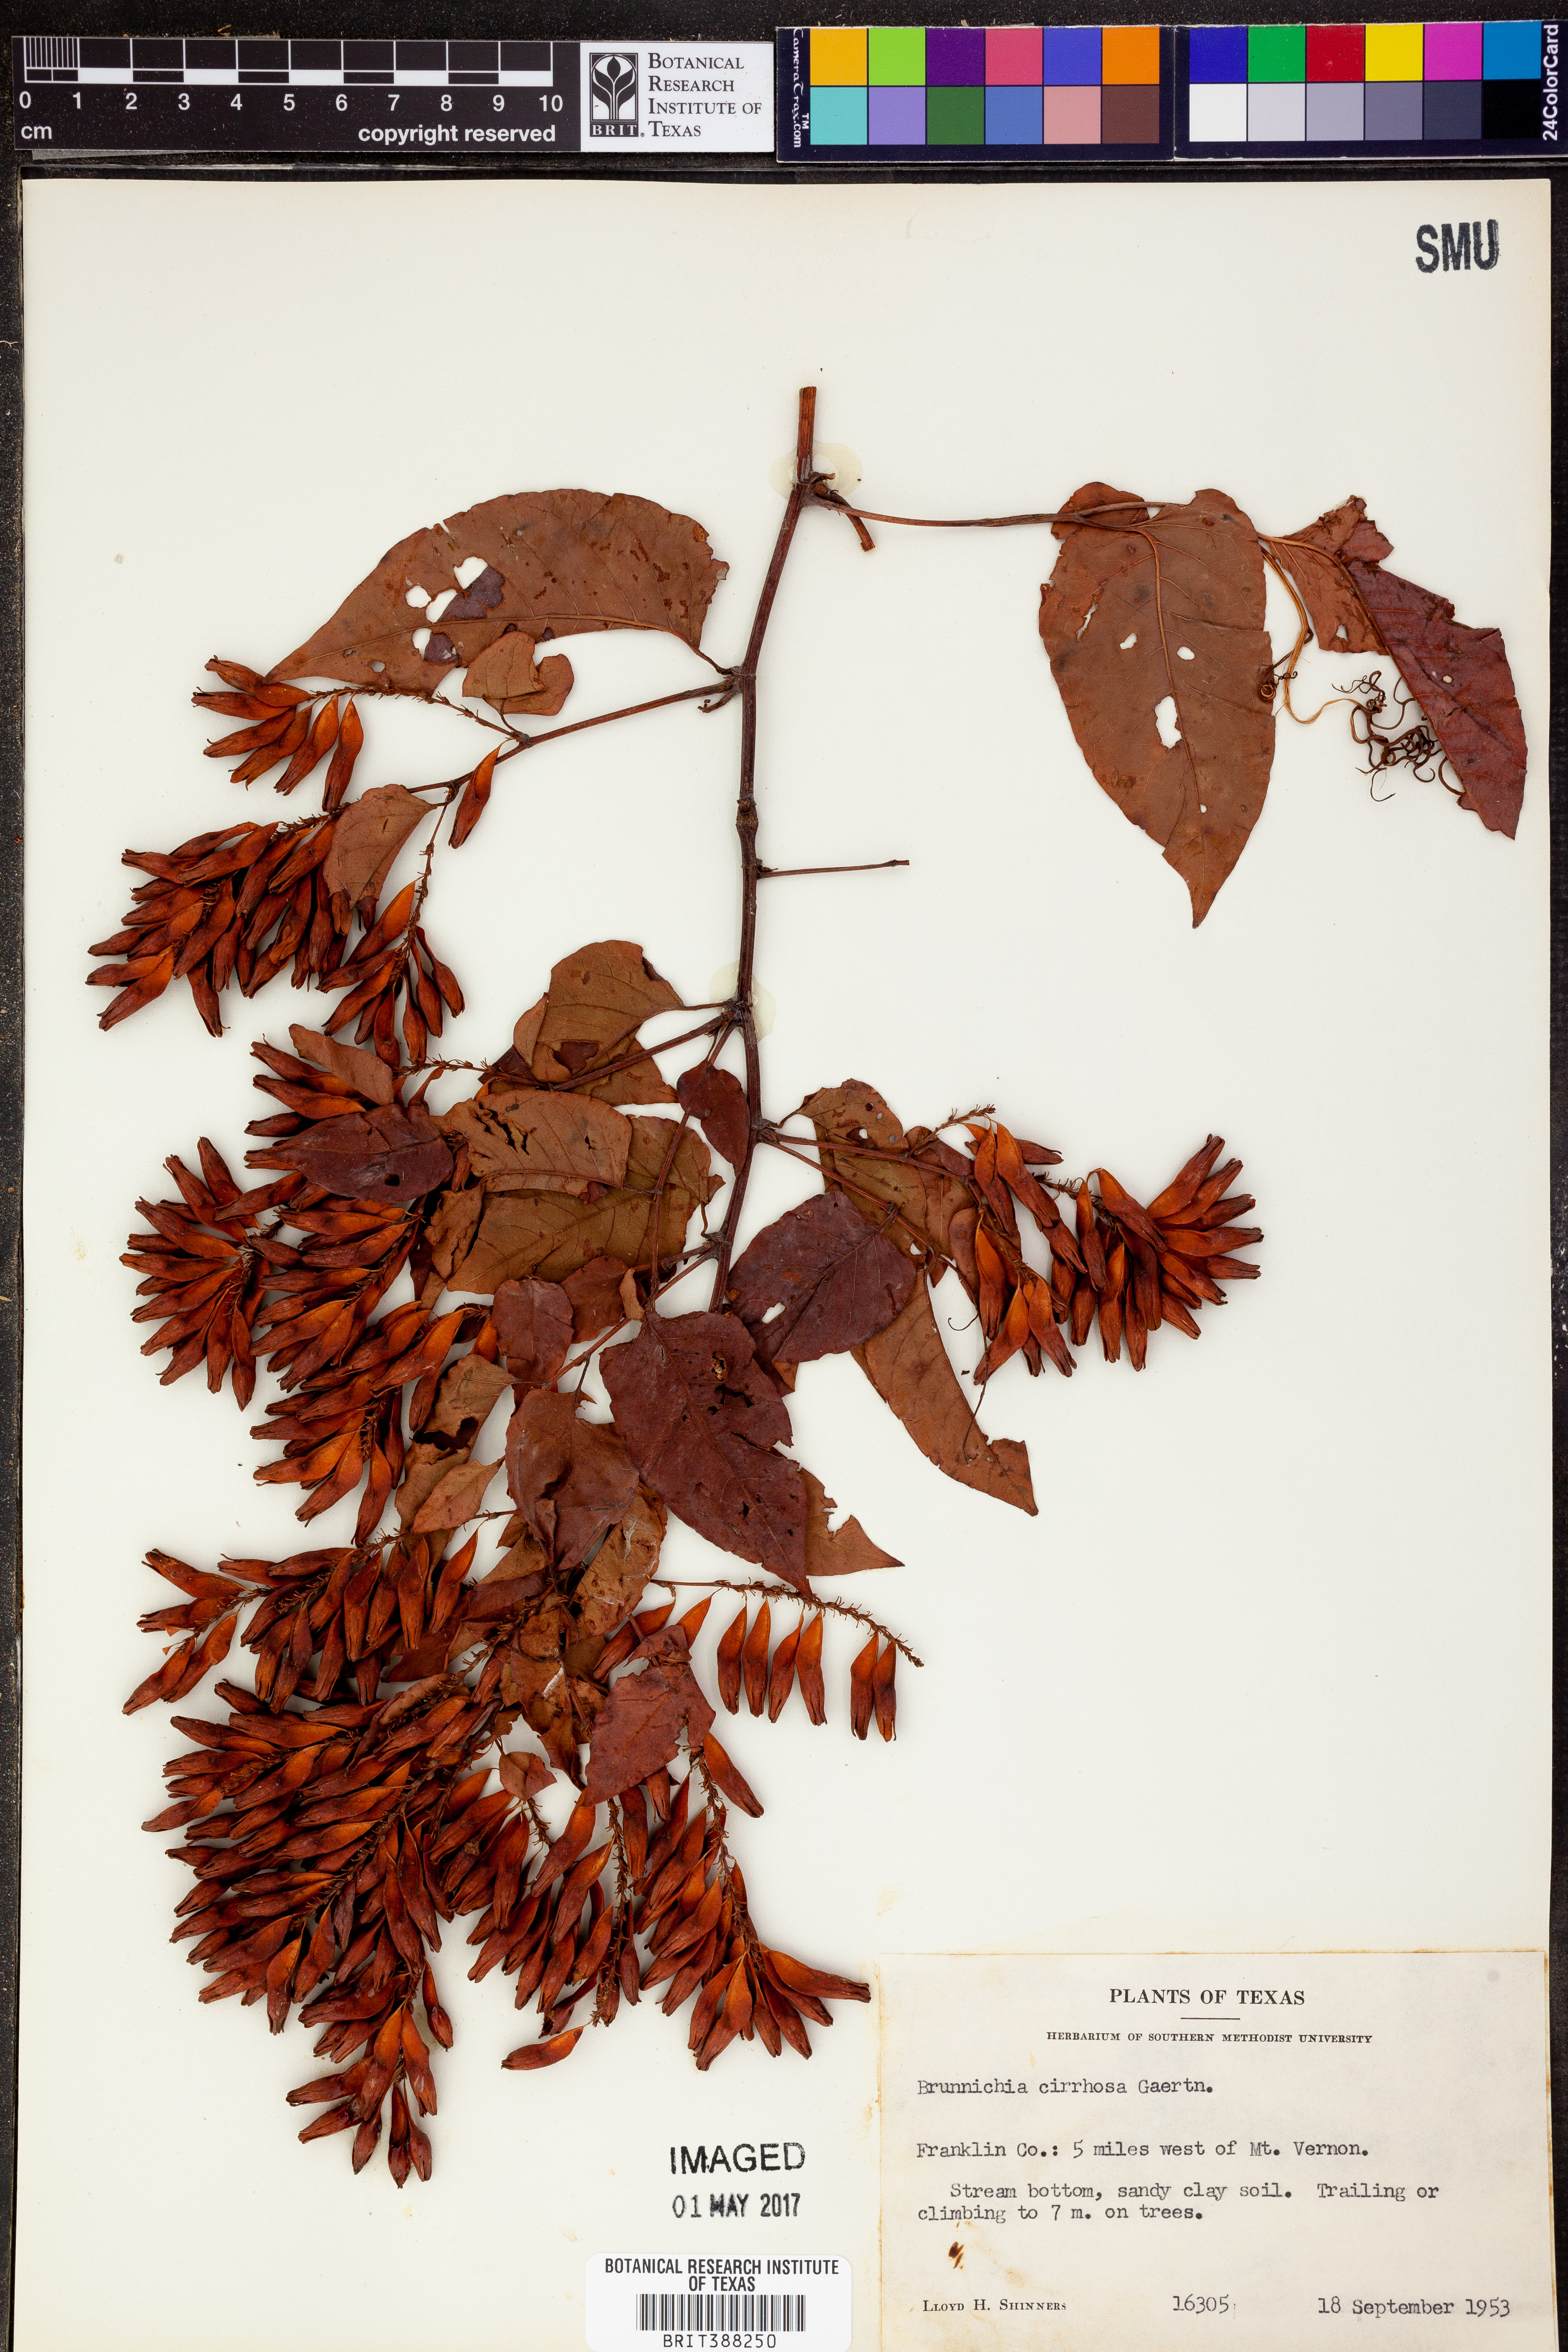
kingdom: Plantae
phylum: Tracheophyta
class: Magnoliopsida
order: Caryophyllales
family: Polygonaceae
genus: Brunnichia
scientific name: Brunnichia ovata
